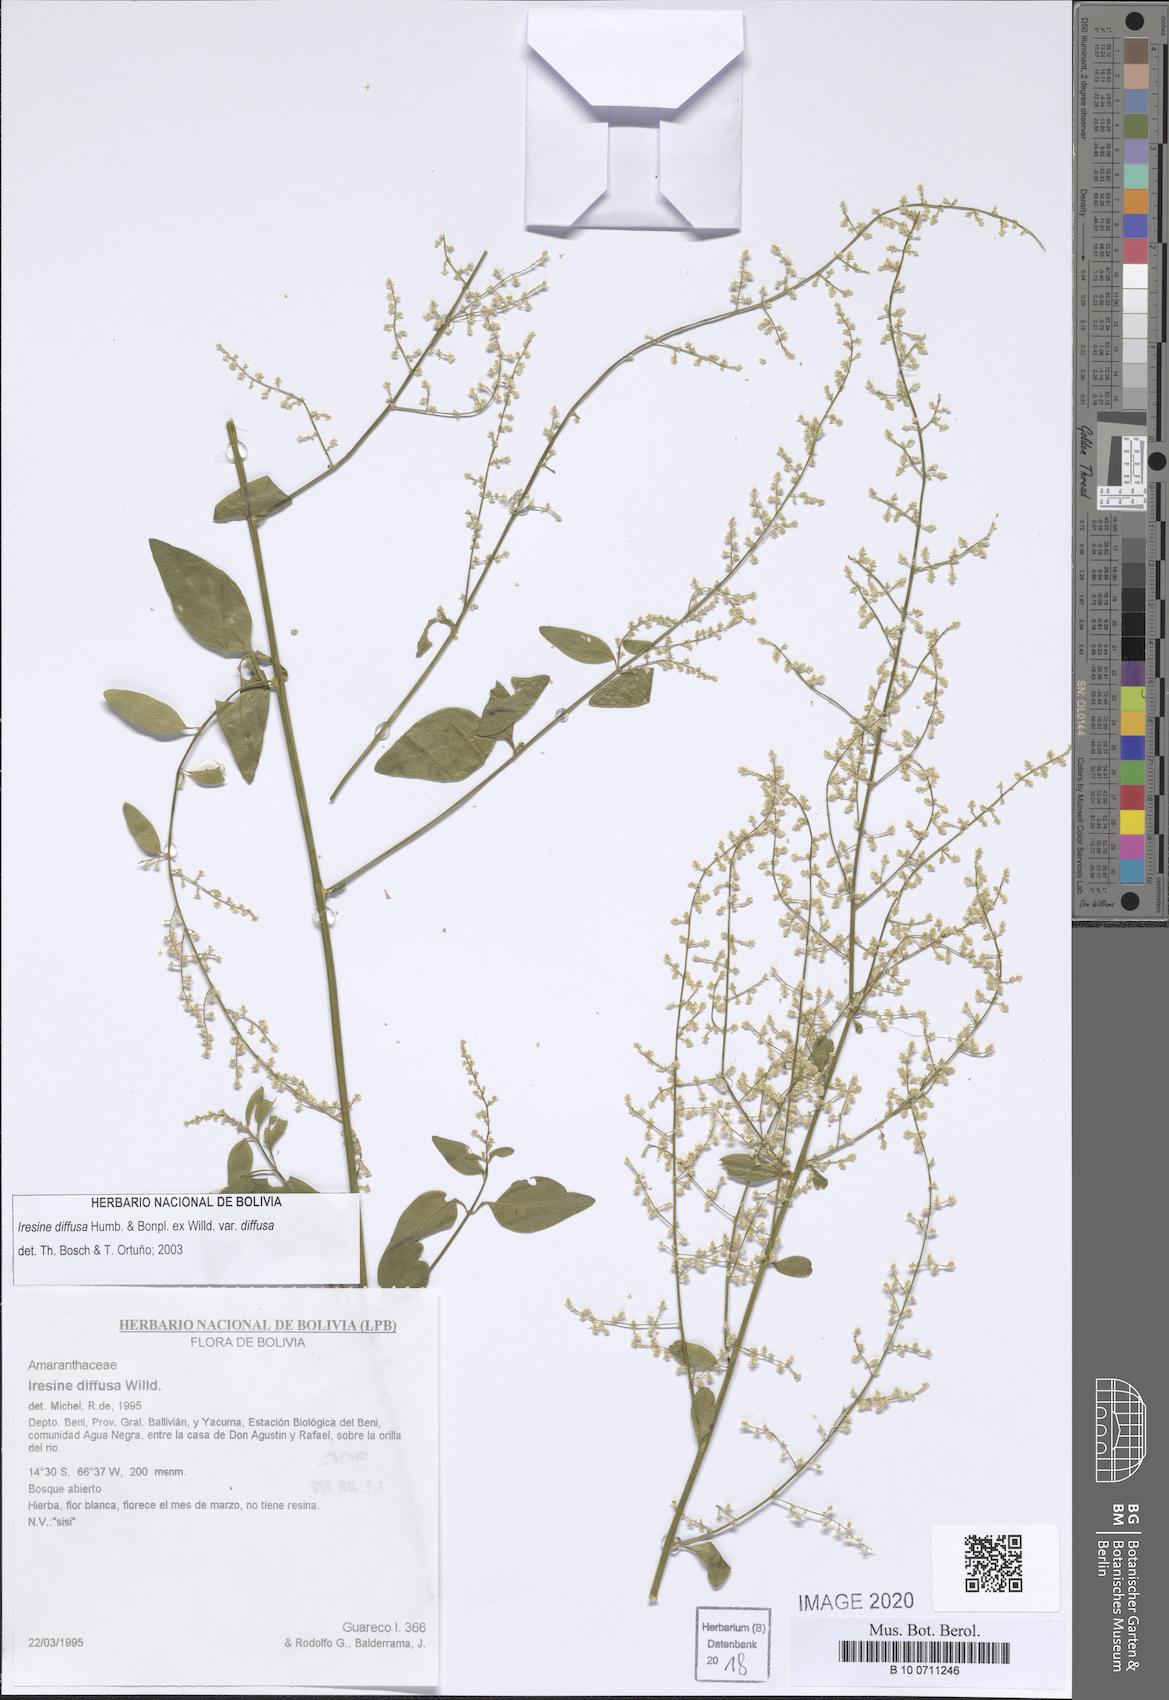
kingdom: Plantae
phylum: Tracheophyta
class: Magnoliopsida
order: Caryophyllales
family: Amaranthaceae
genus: Iresine
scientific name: Iresine diffusa
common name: Juba's-bush
